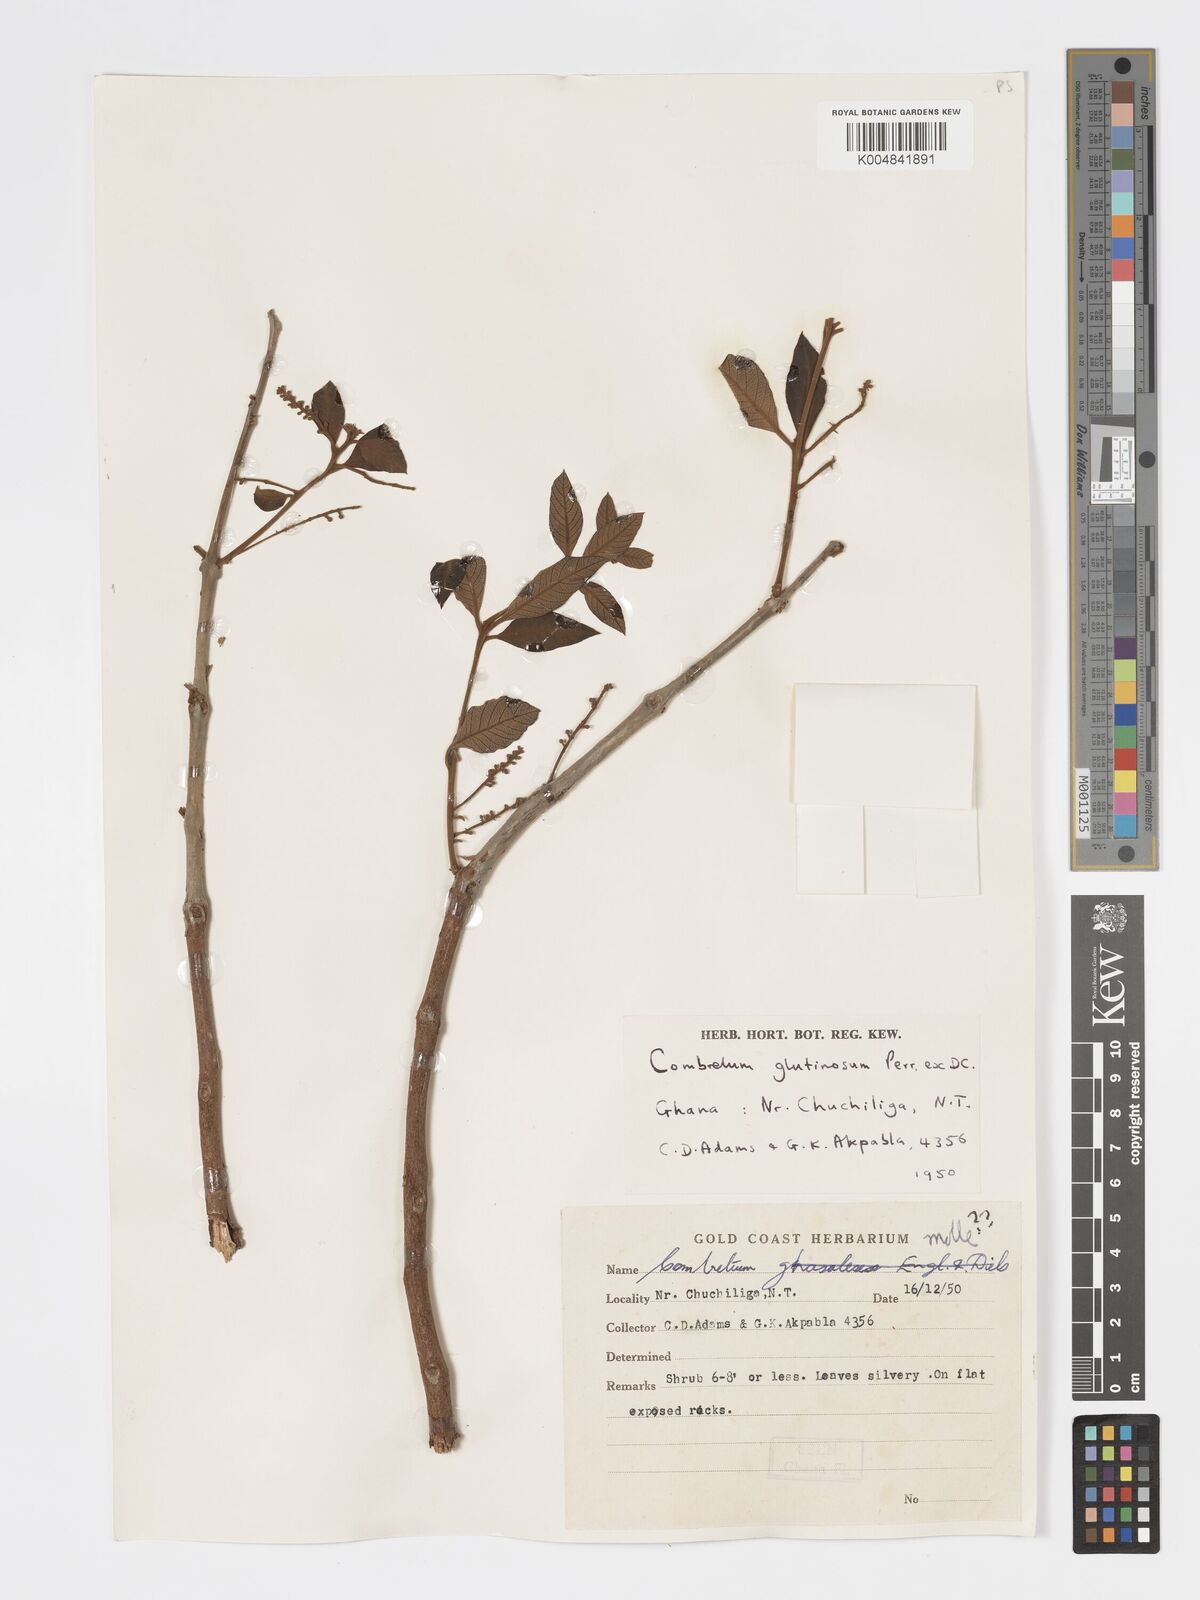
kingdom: Plantae
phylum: Tracheophyta
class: Magnoliopsida
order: Myrtales
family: Combretaceae
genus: Combretum
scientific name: Combretum
